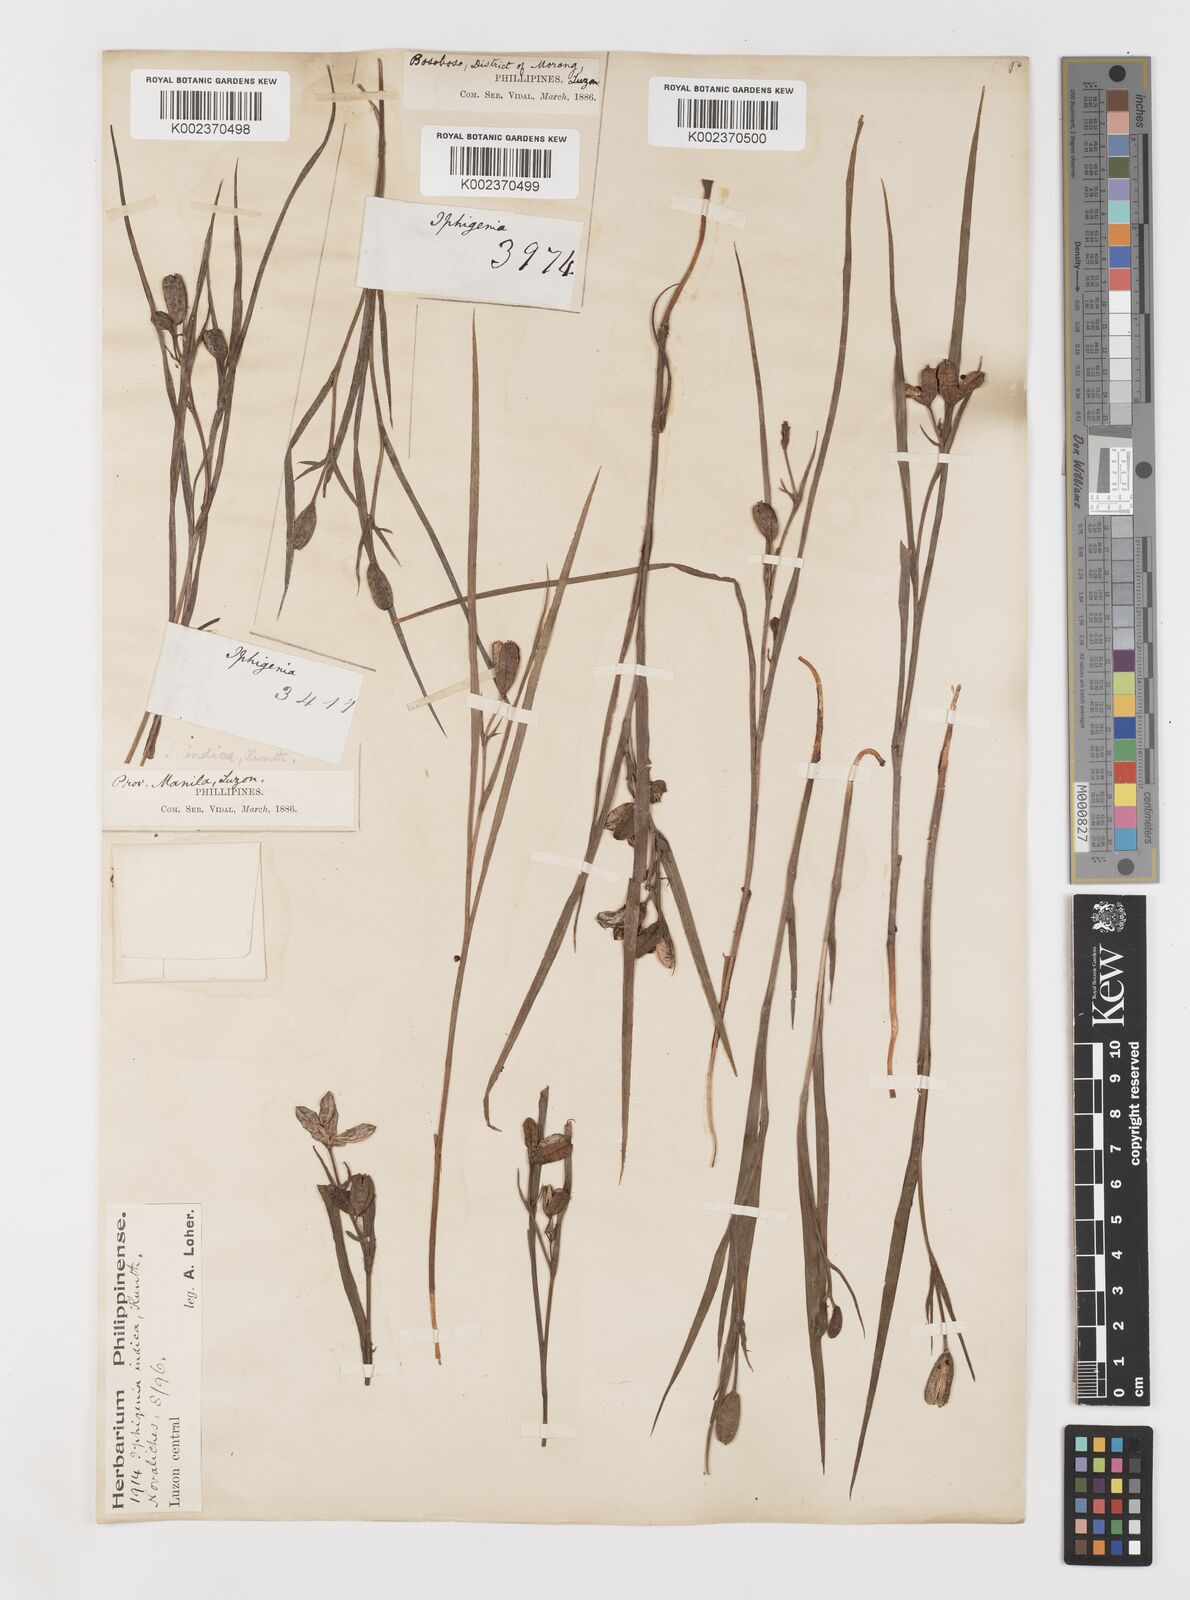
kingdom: Plantae
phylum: Tracheophyta
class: Liliopsida
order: Liliales
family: Colchicaceae
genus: Iphigenia
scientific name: Iphigenia indica
